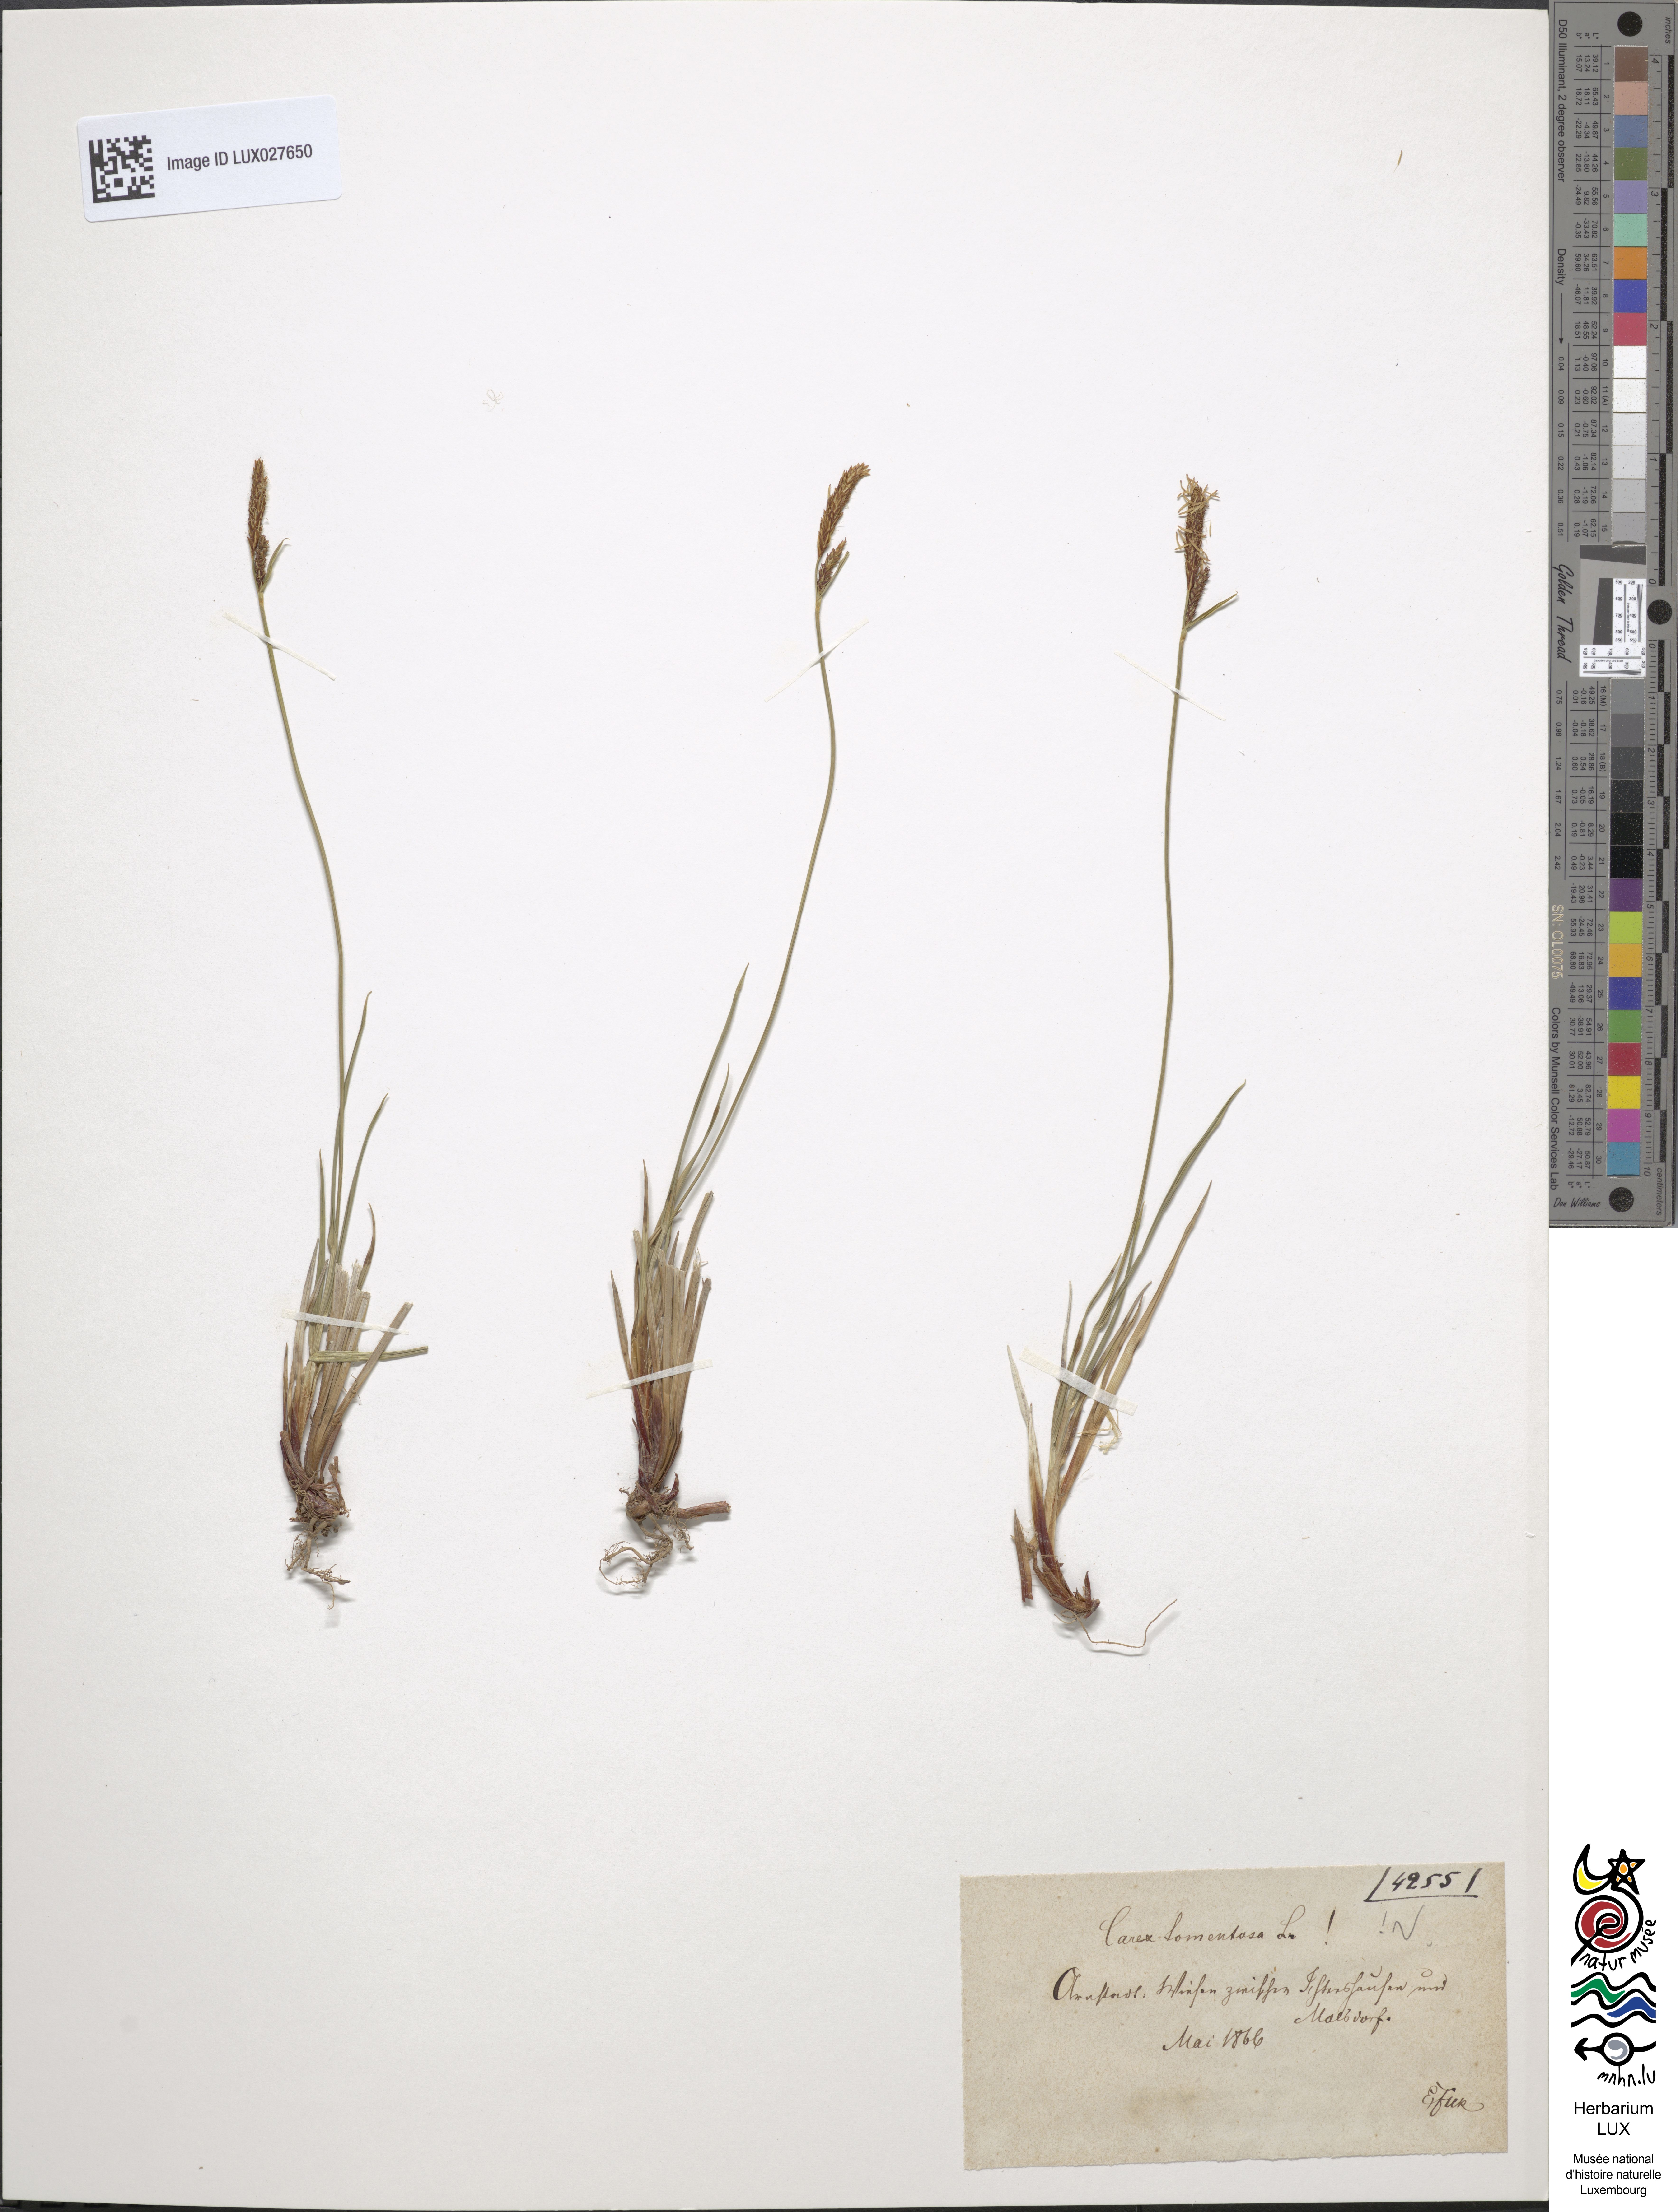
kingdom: Plantae
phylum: Tracheophyta
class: Liliopsida
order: Poales
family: Cyperaceae
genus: Carex
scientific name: Carex tomentosa
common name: Downy-fruited sedge
